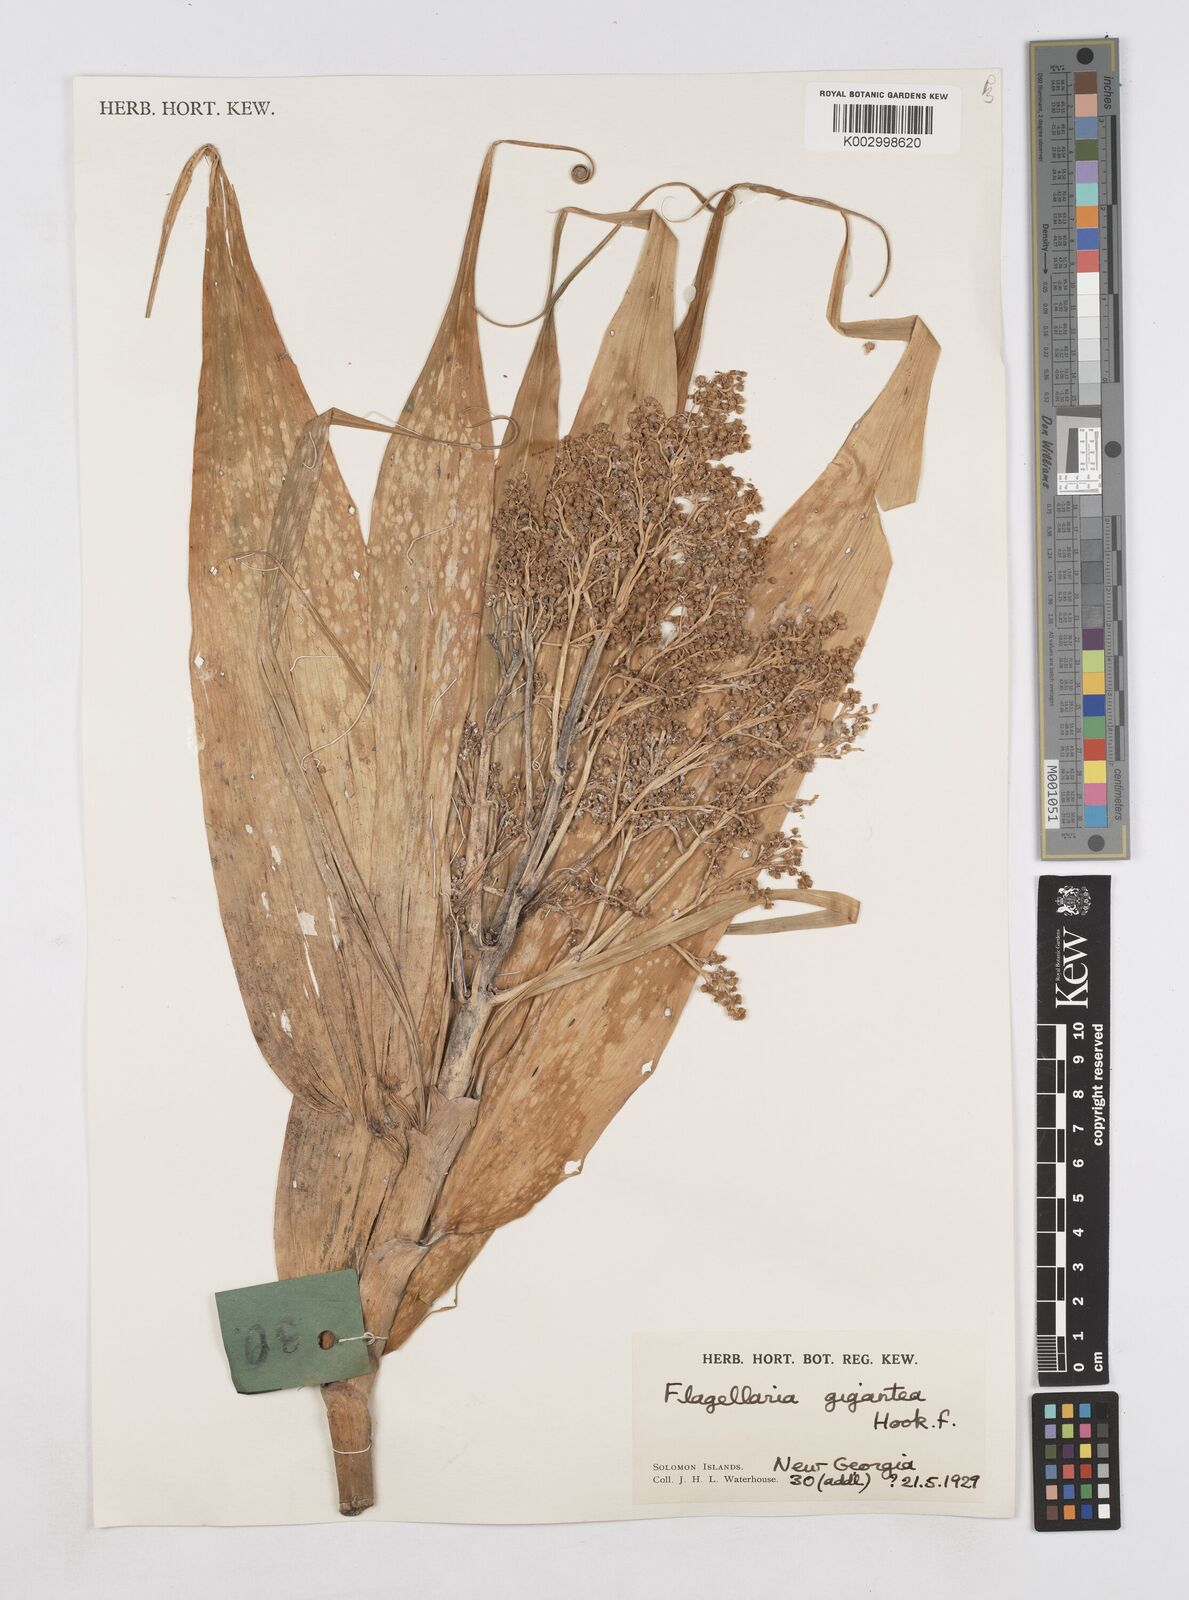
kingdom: Plantae
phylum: Tracheophyta
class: Liliopsida
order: Poales
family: Flagellariaceae
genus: Flagellaria
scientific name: Flagellaria gigantea
